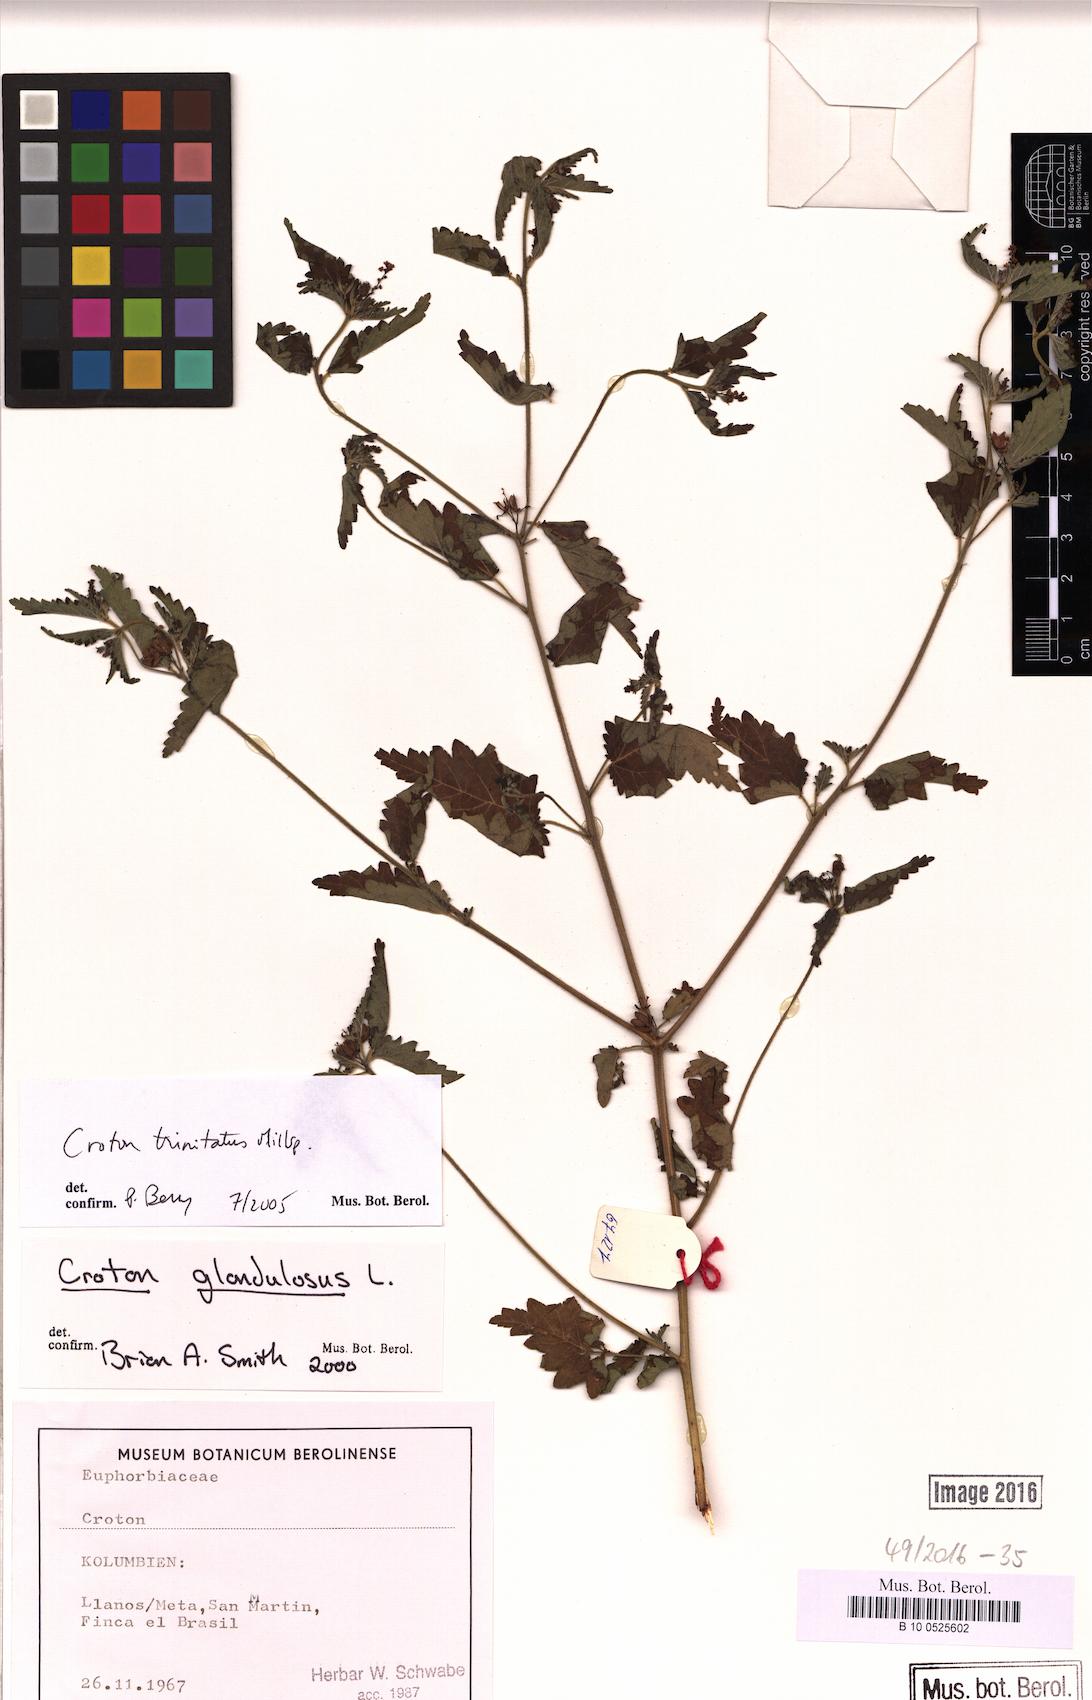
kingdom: Plantae
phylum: Tracheophyta
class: Magnoliopsida
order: Malpighiales
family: Euphorbiaceae
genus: Croton
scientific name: Croton trinitatis
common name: Roadside croton
